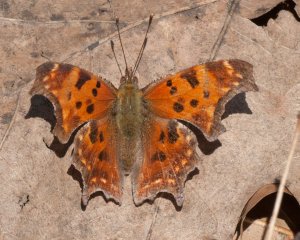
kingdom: Animalia
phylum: Arthropoda
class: Insecta
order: Lepidoptera
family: Nymphalidae
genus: Polygonia
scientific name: Polygonia comma
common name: Eastern Comma
